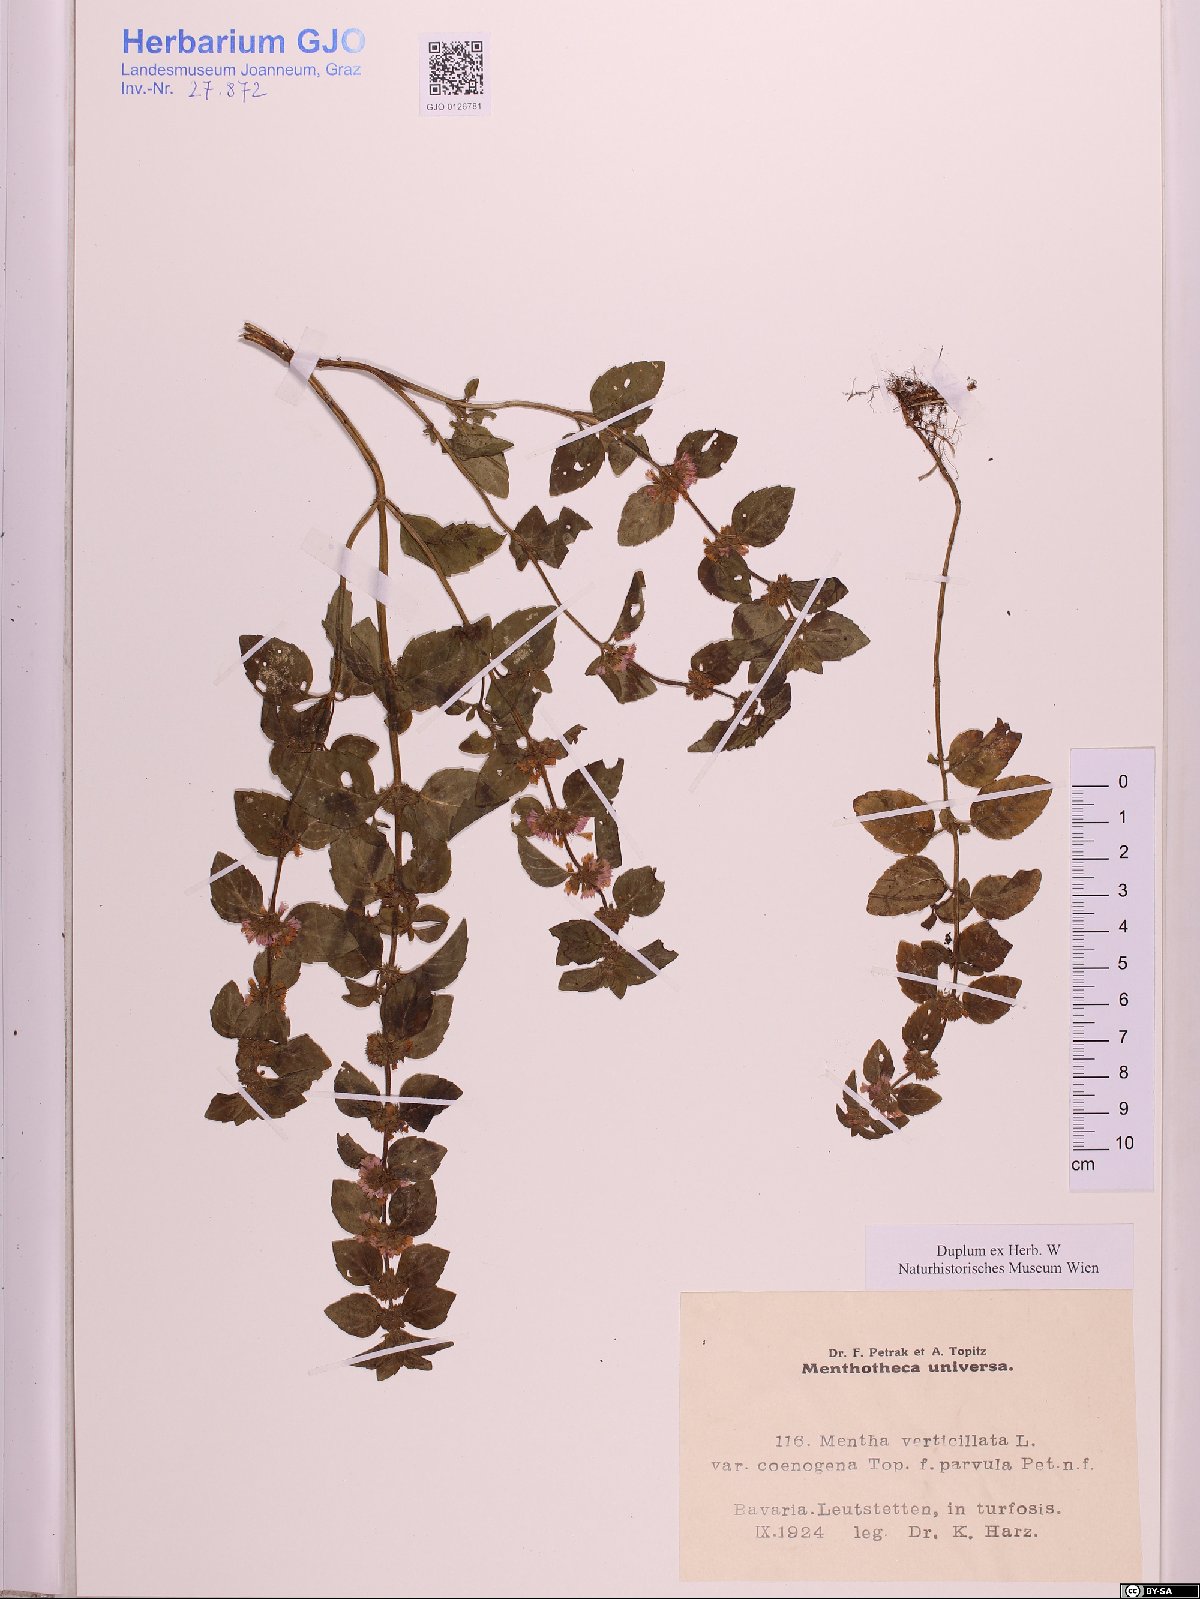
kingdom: Plantae
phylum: Tracheophyta
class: Magnoliopsida
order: Lamiales
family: Lamiaceae
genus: Mentha
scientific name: Mentha verticillata
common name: Mint
